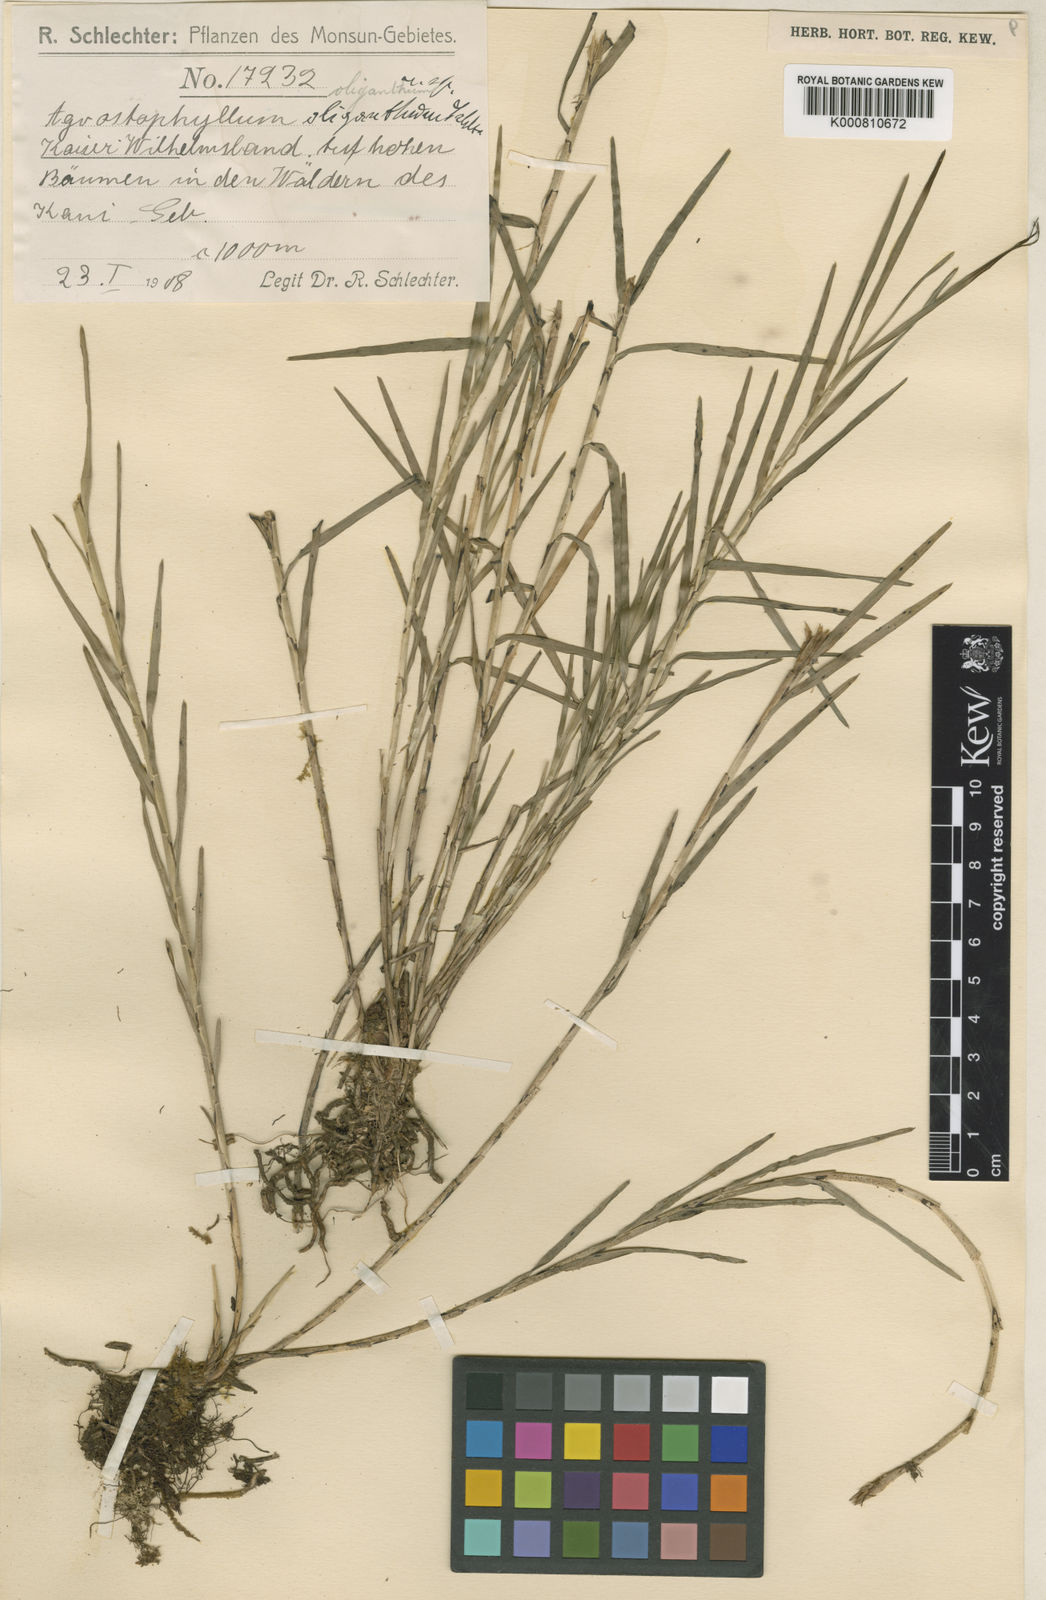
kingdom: Plantae
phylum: Tracheophyta
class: Liliopsida
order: Asparagales
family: Orchidaceae
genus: Agrostophyllum
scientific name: Agrostophyllum uniflorum
